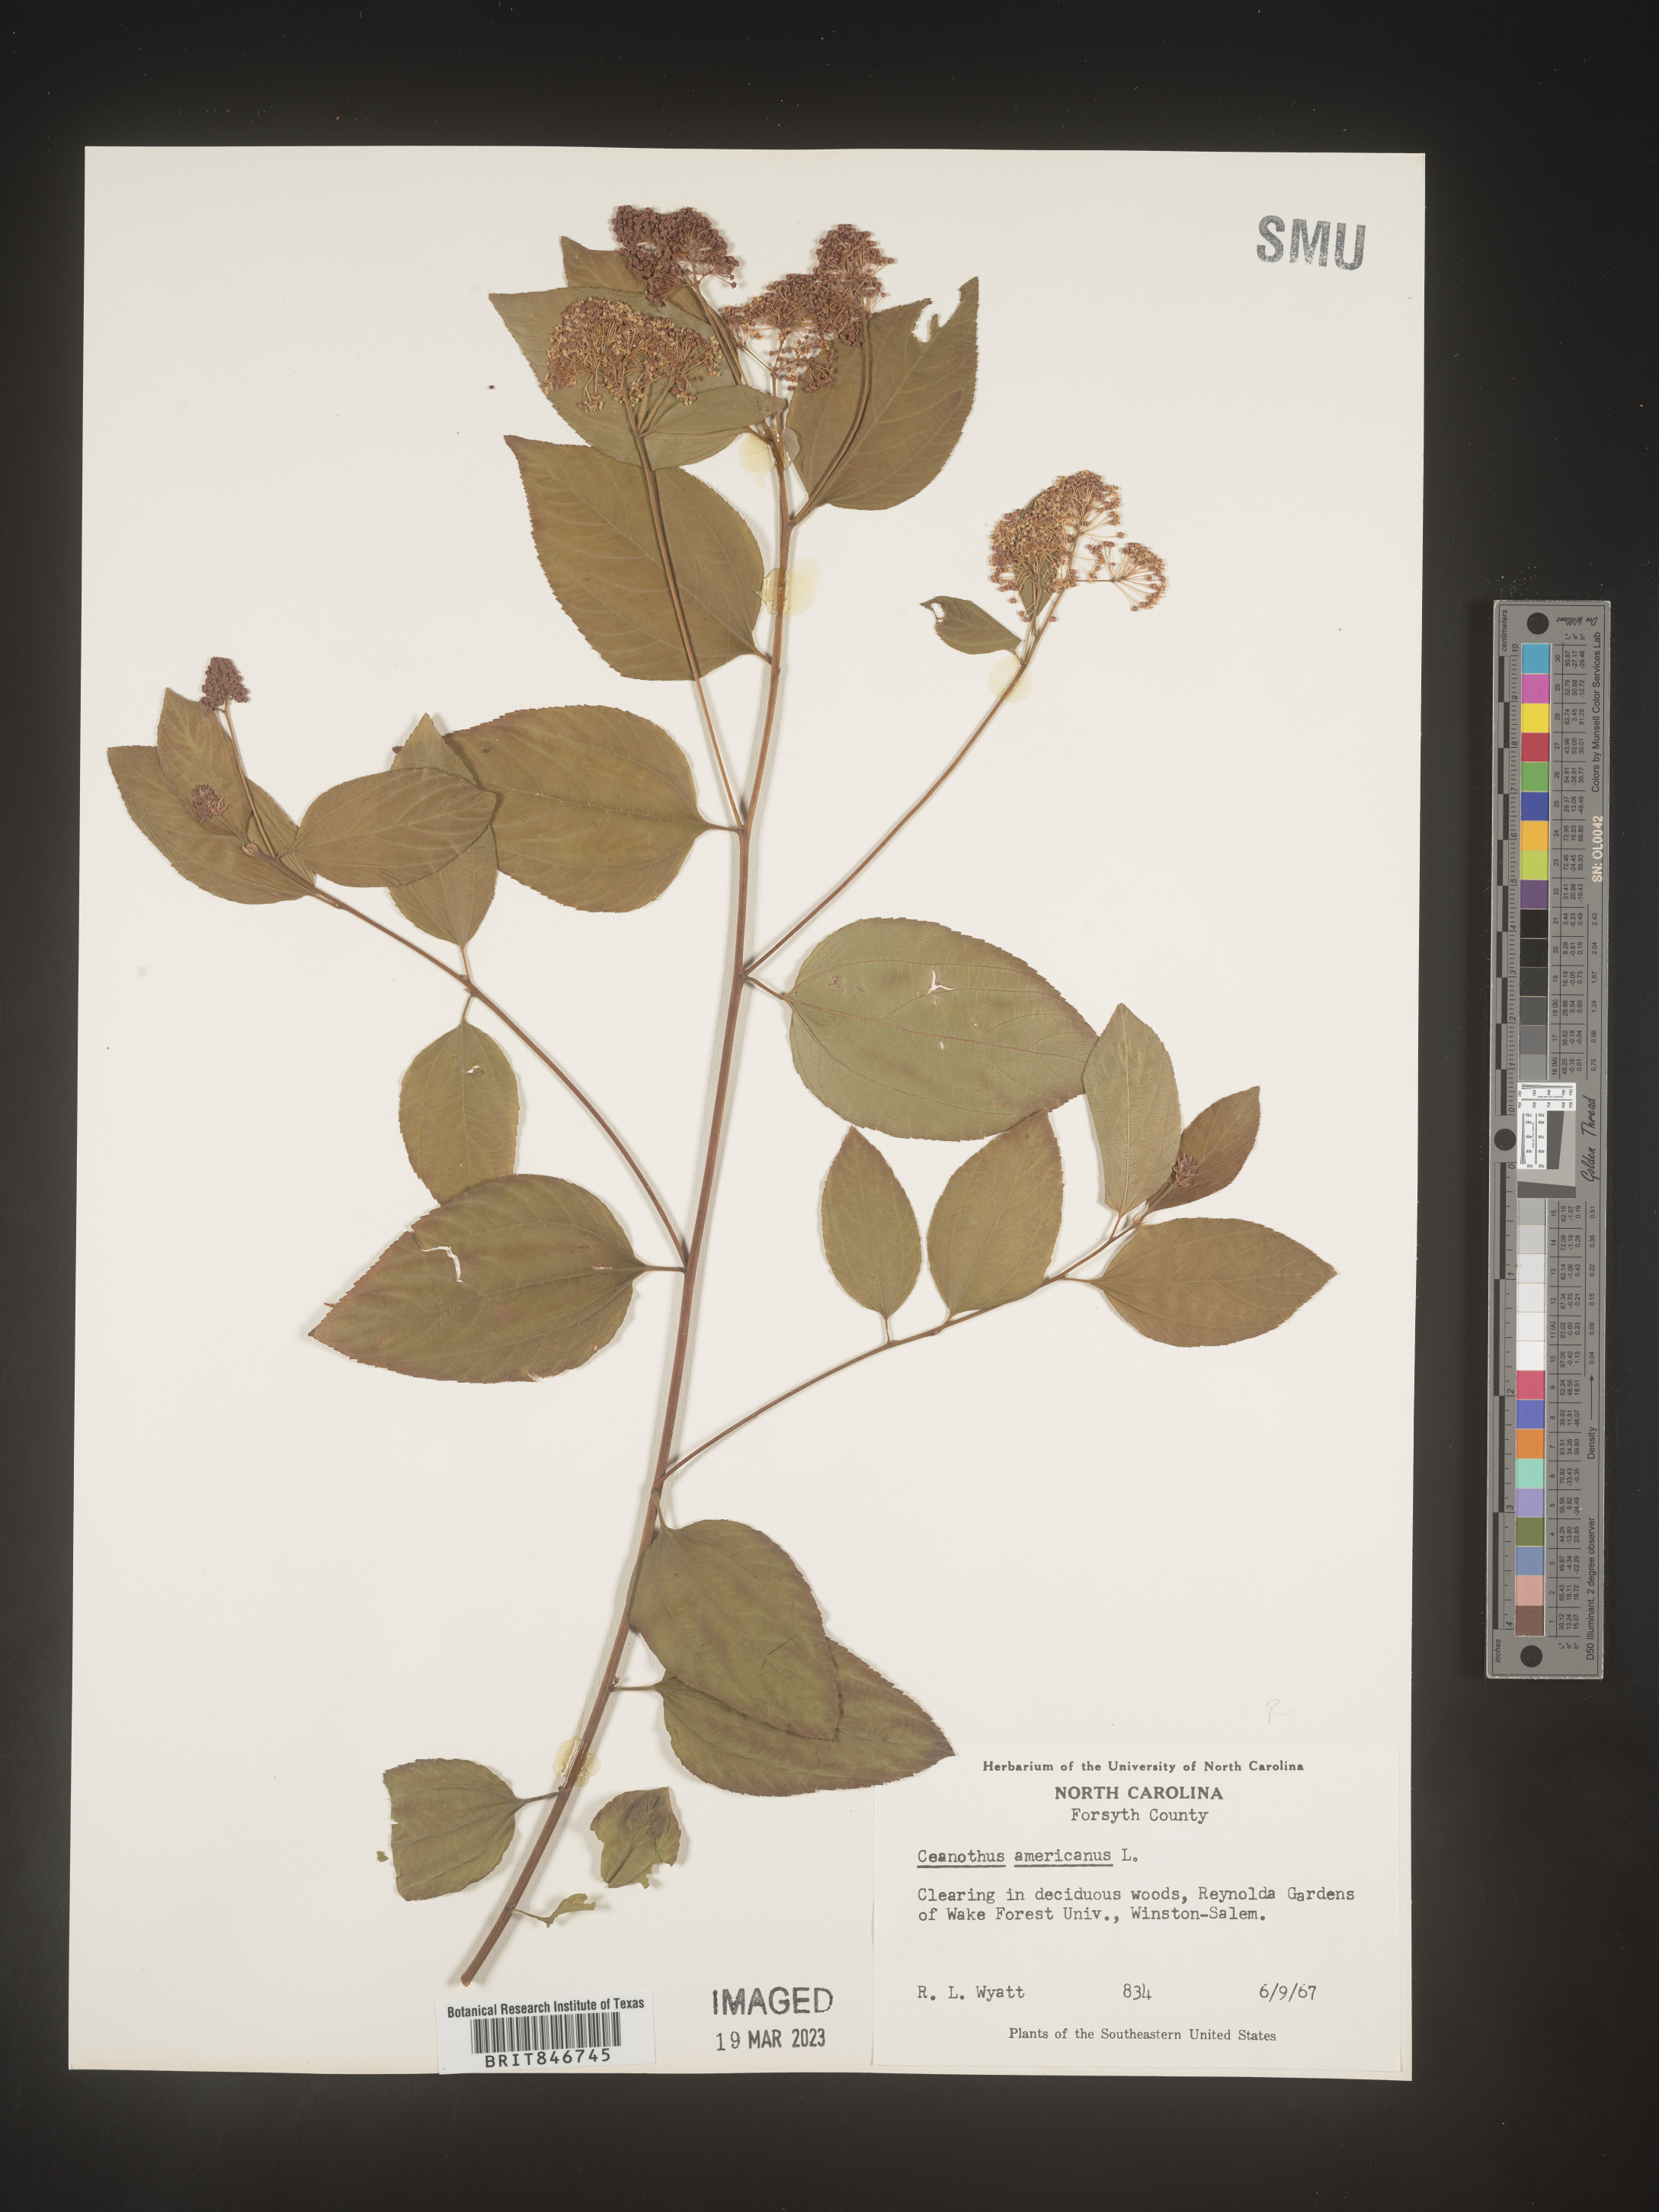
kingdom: Plantae
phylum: Tracheophyta
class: Magnoliopsida
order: Rosales
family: Rhamnaceae
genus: Ceanothus
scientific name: Ceanothus americanus
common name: Redroot
